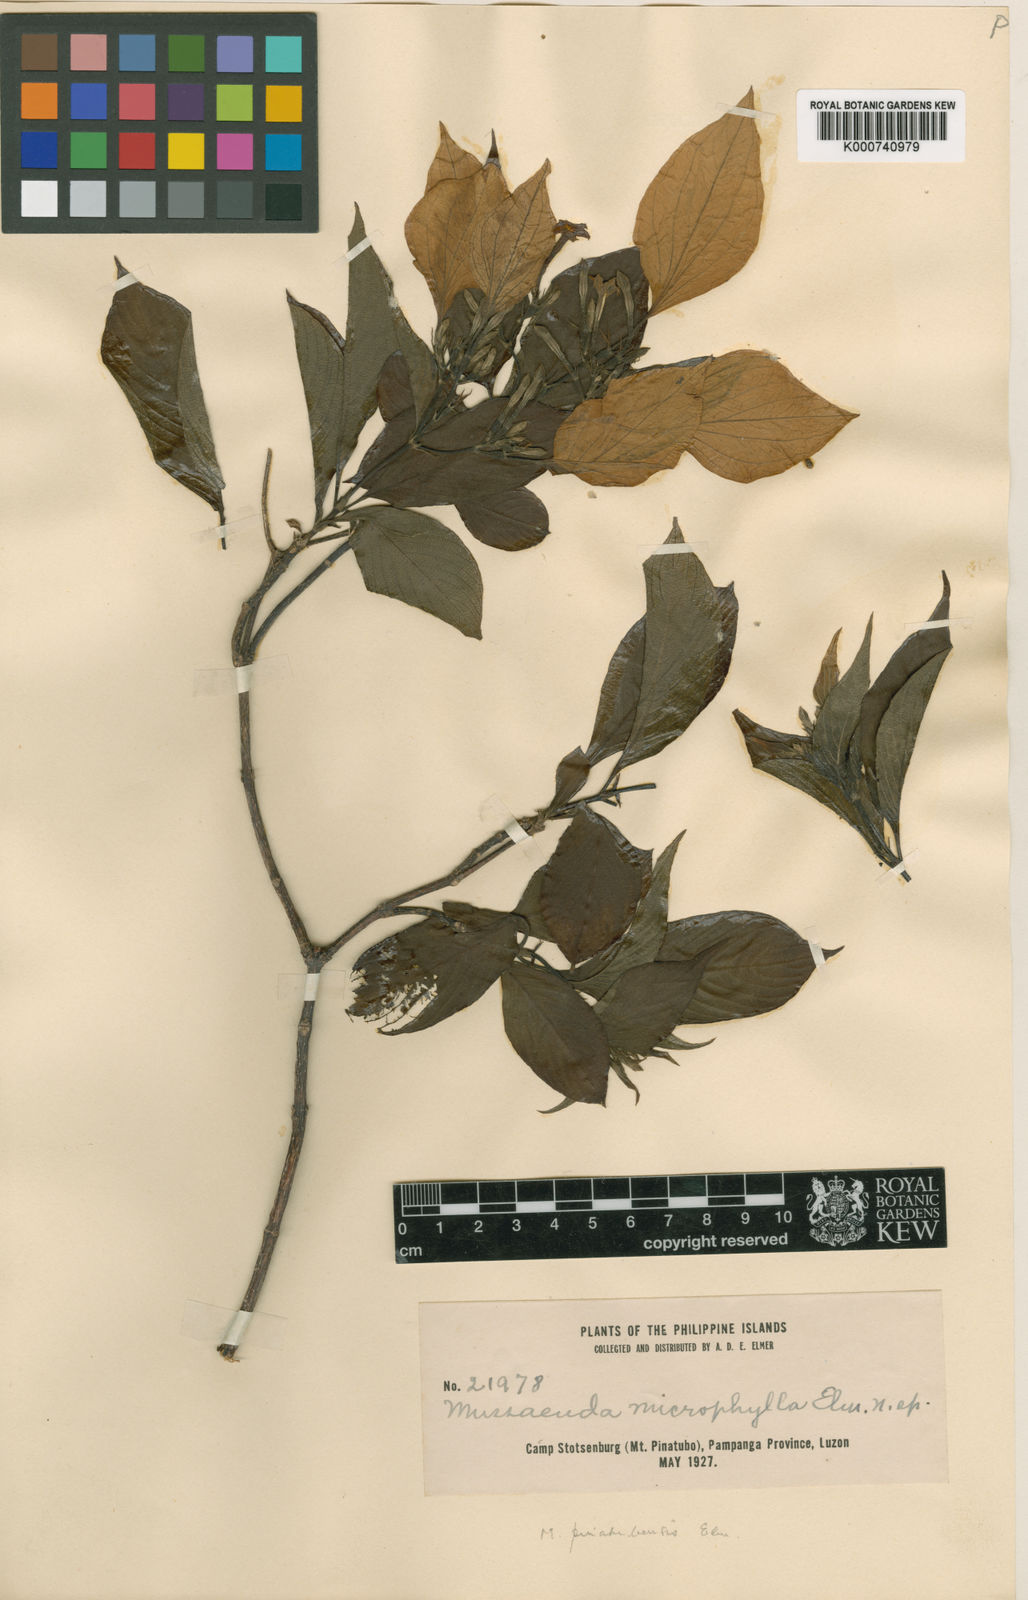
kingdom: Plantae
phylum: Tracheophyta
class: Magnoliopsida
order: Gentianales
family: Rubiaceae
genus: Mussaenda
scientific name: Mussaenda
